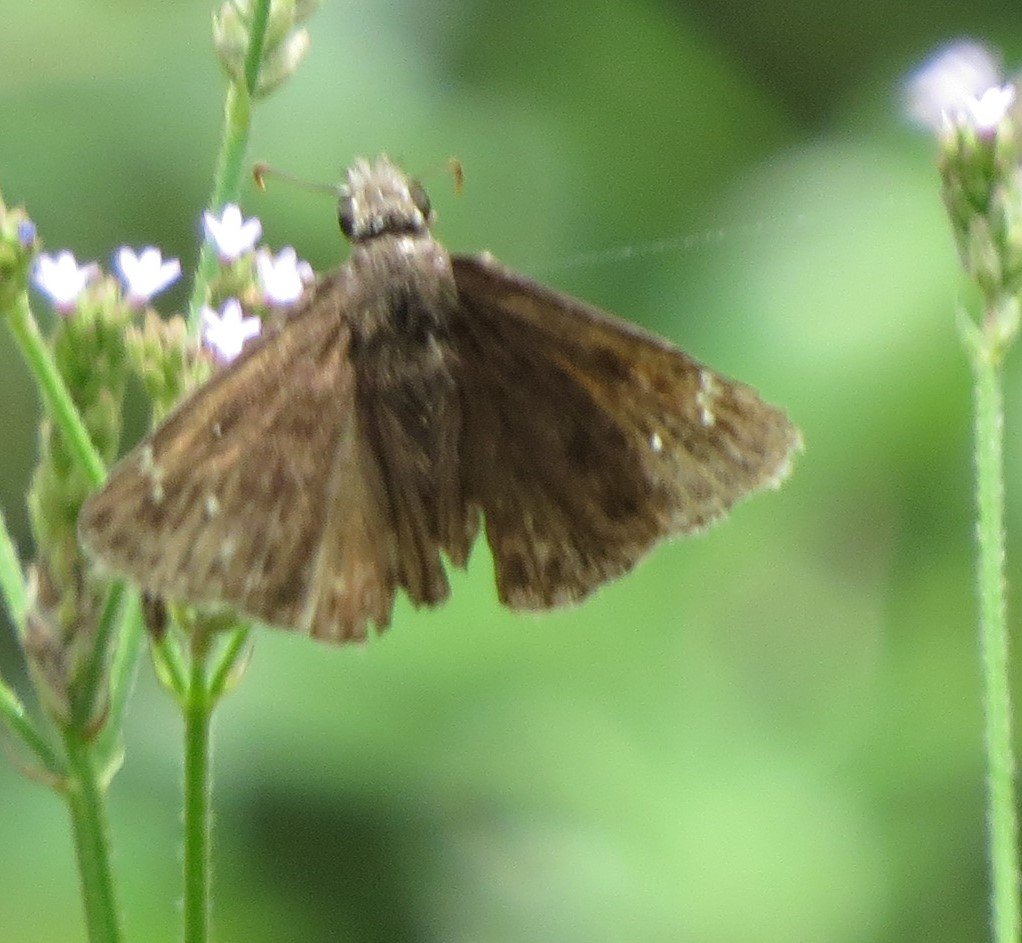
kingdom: Animalia
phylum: Arthropoda
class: Insecta
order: Lepidoptera
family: Hesperiidae
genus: Gesta
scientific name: Gesta
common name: Horace's Duskywing
